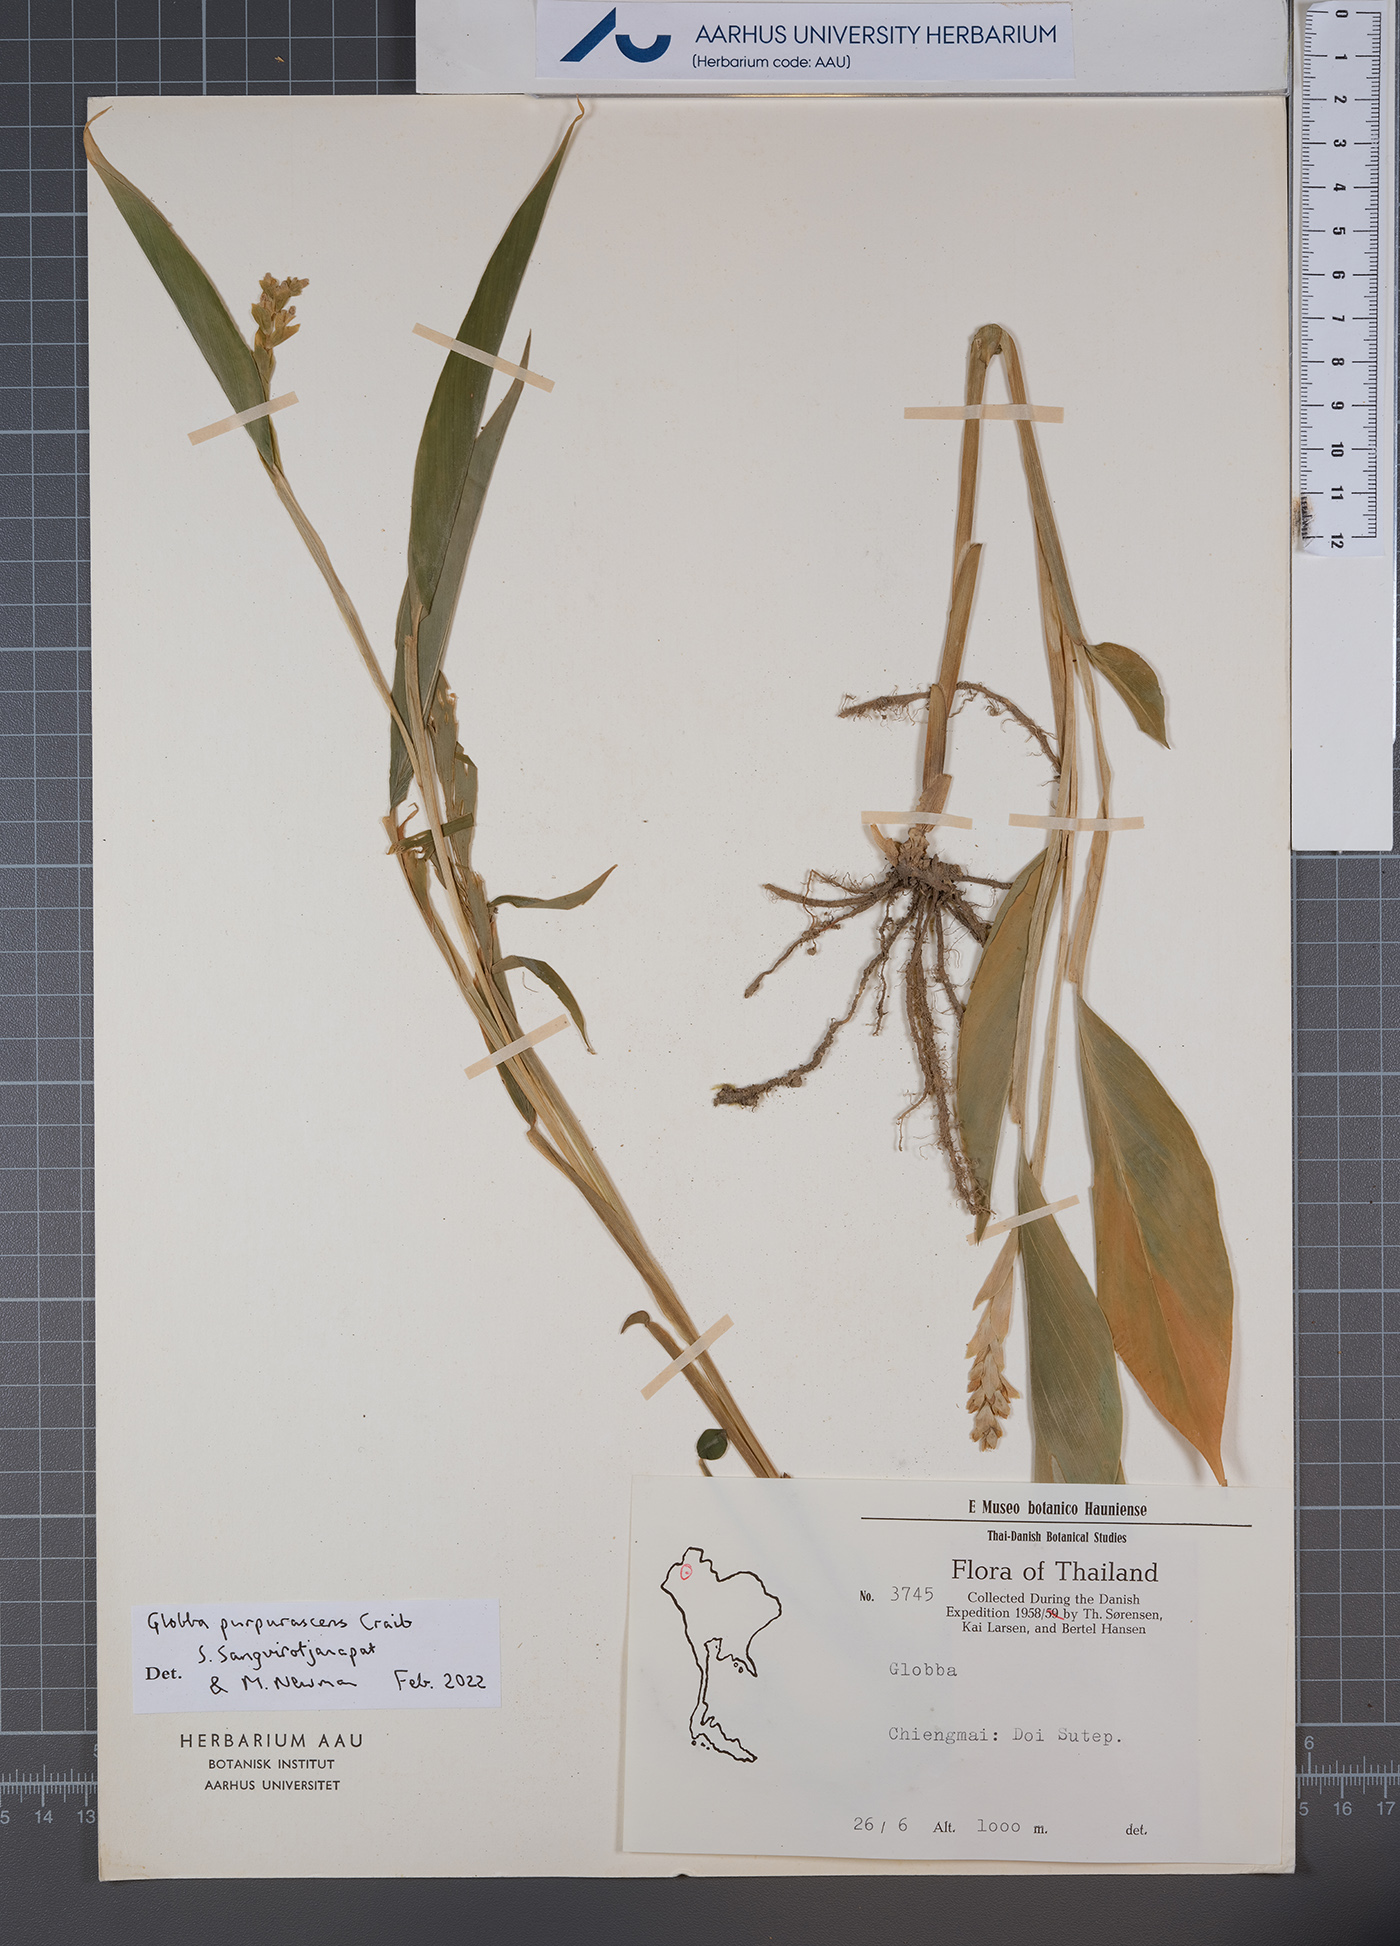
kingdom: Plantae
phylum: Tracheophyta
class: Liliopsida
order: Zingiberales
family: Zingiberaceae
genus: Globba
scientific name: Globba purpurascens
